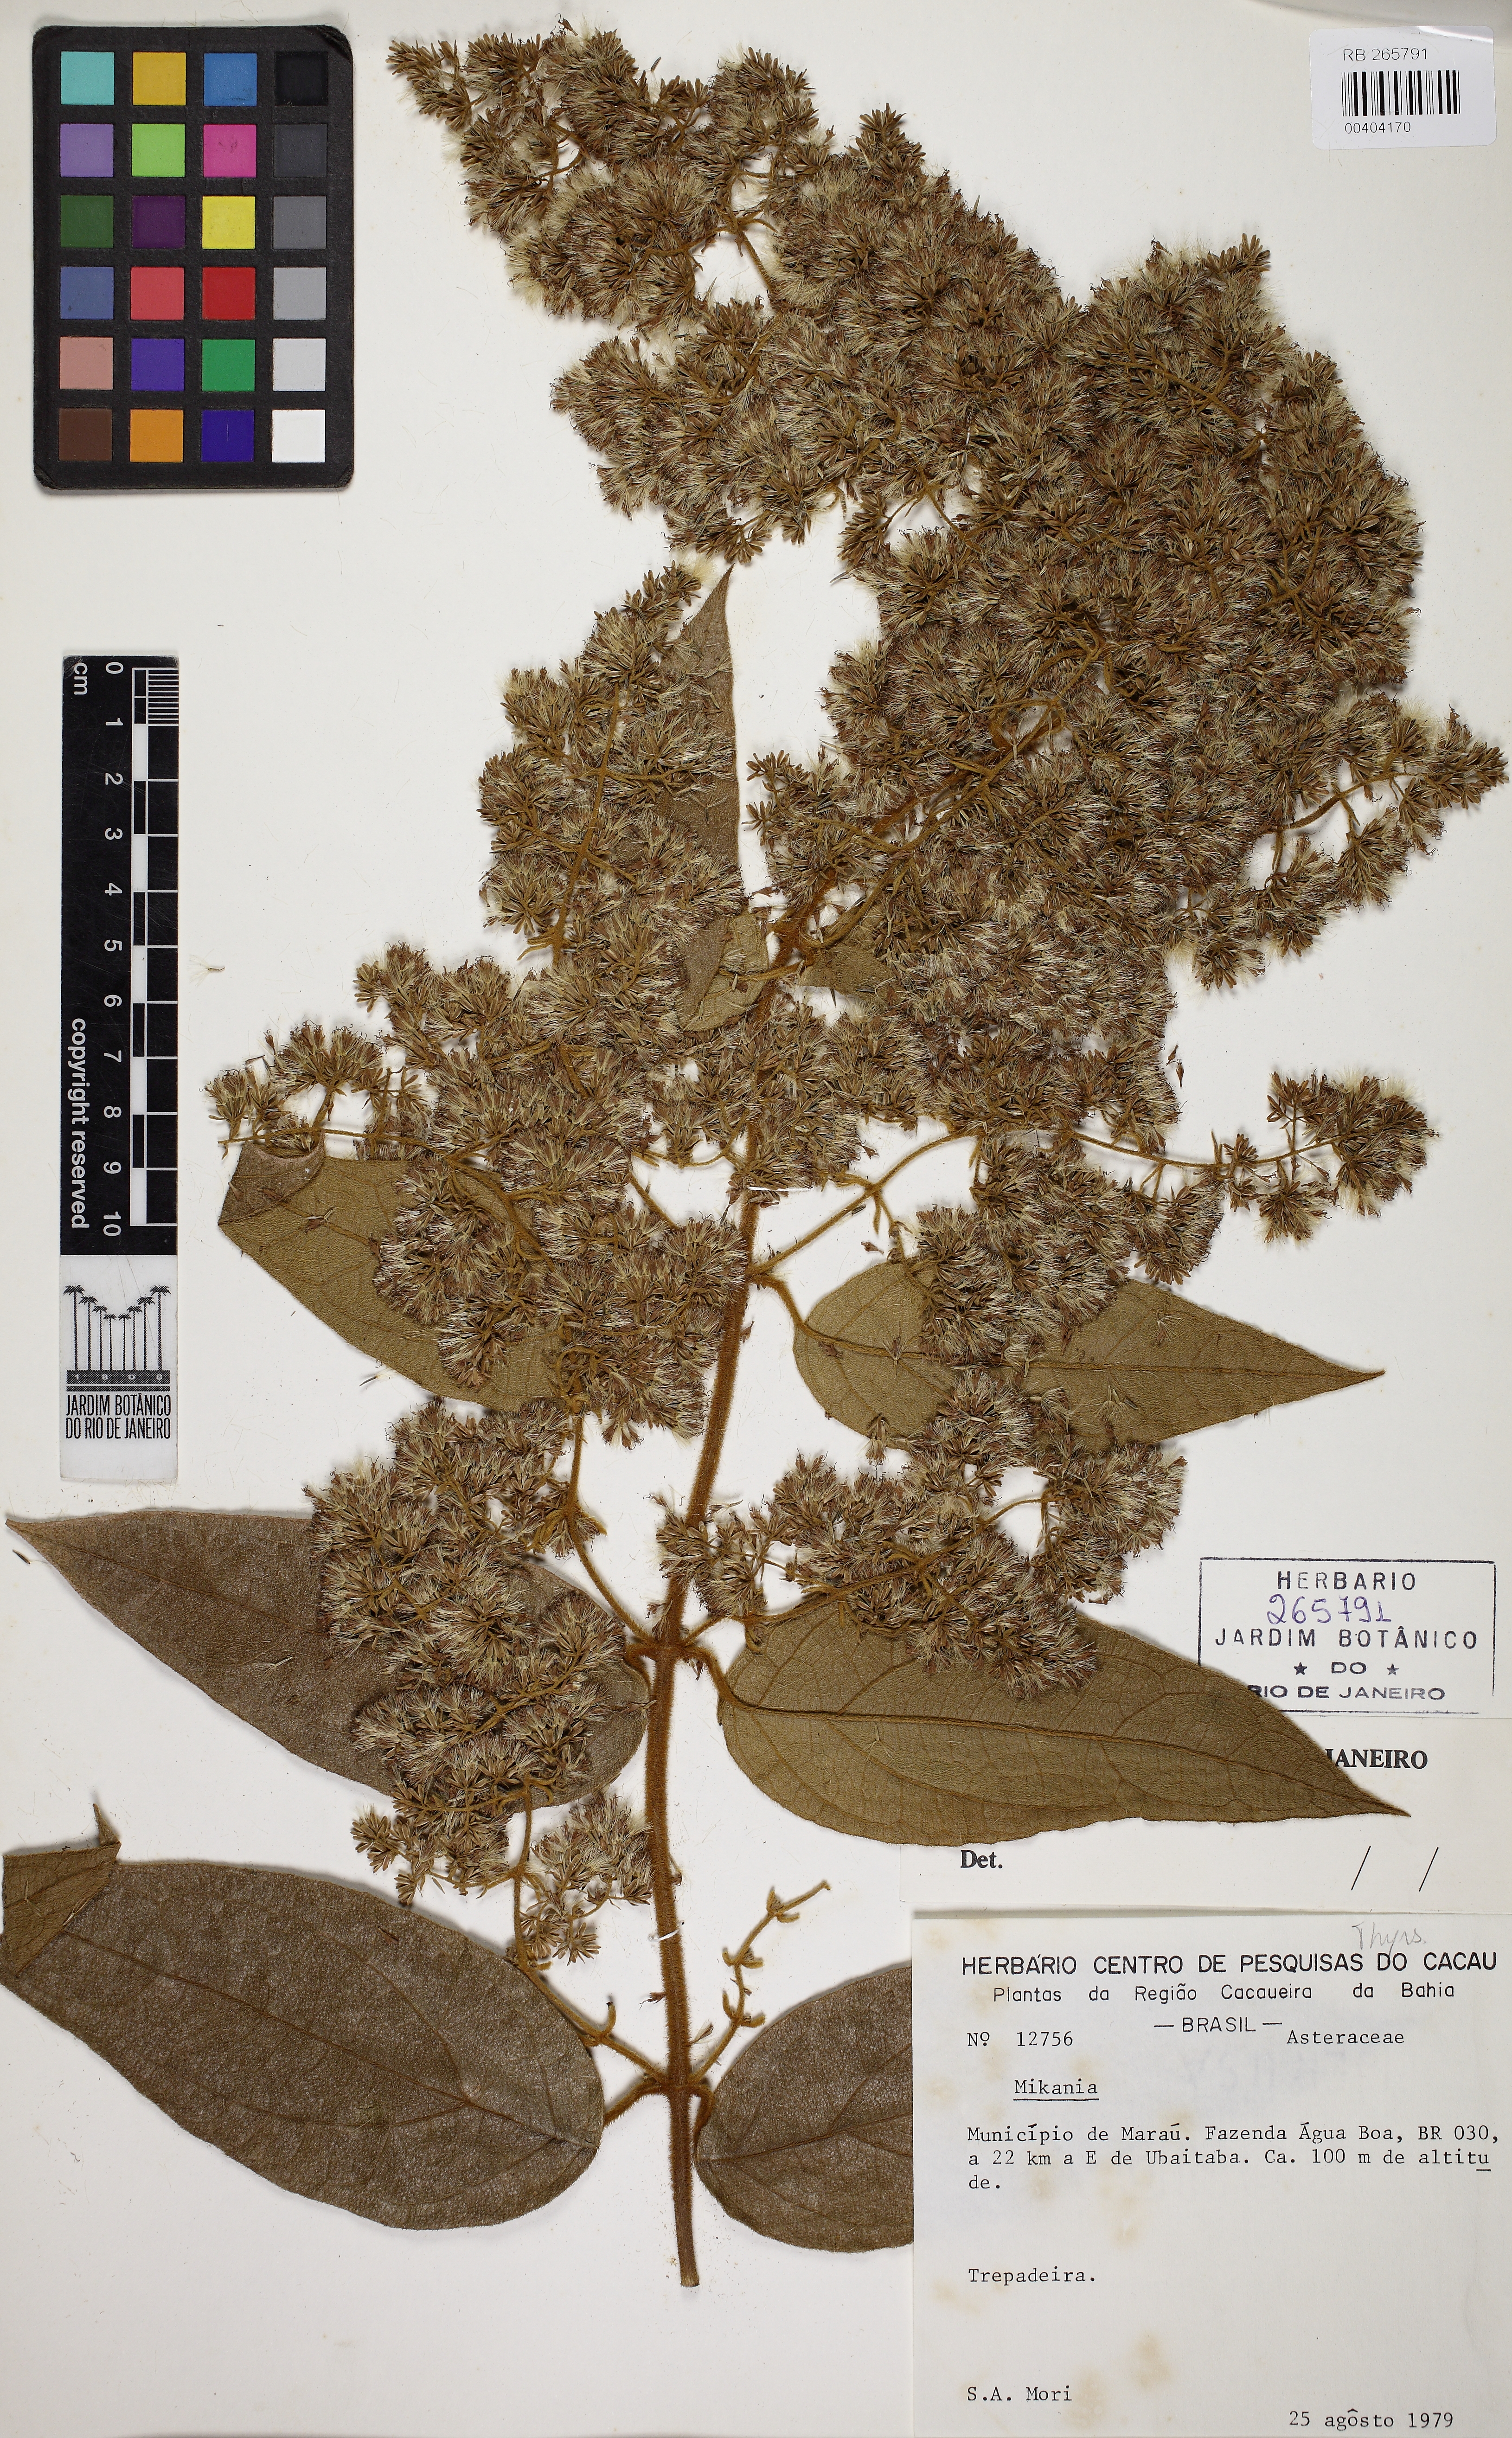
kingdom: Plantae
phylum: Tracheophyta
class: Magnoliopsida
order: Asterales
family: Asteraceae
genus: Mikania
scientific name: Mikania trichophila
